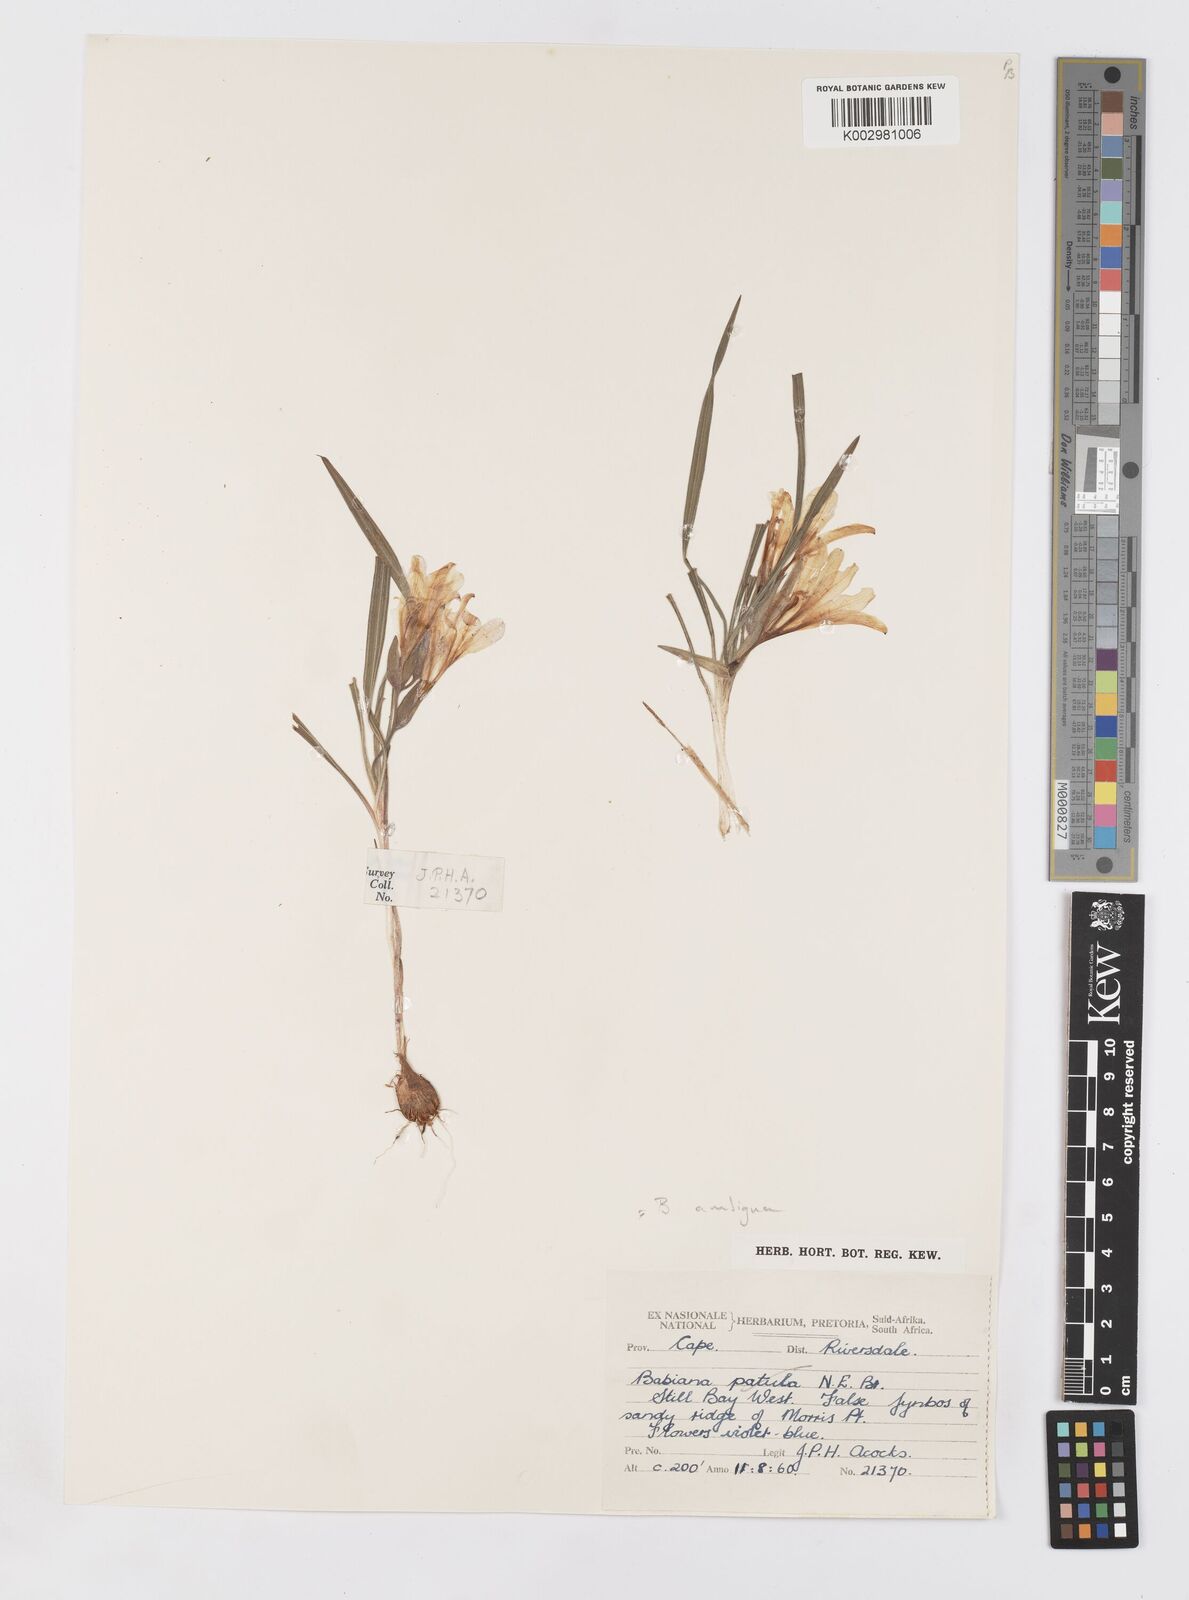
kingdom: Plantae
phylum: Tracheophyta
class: Liliopsida
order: Asparagales
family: Iridaceae
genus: Babiana
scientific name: Babiana ambigua
